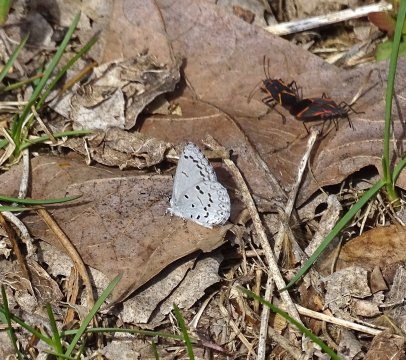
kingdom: Animalia
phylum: Arthropoda
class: Insecta
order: Lepidoptera
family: Lycaenidae
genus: Celastrina
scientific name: Celastrina ladon
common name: Spring Azure
